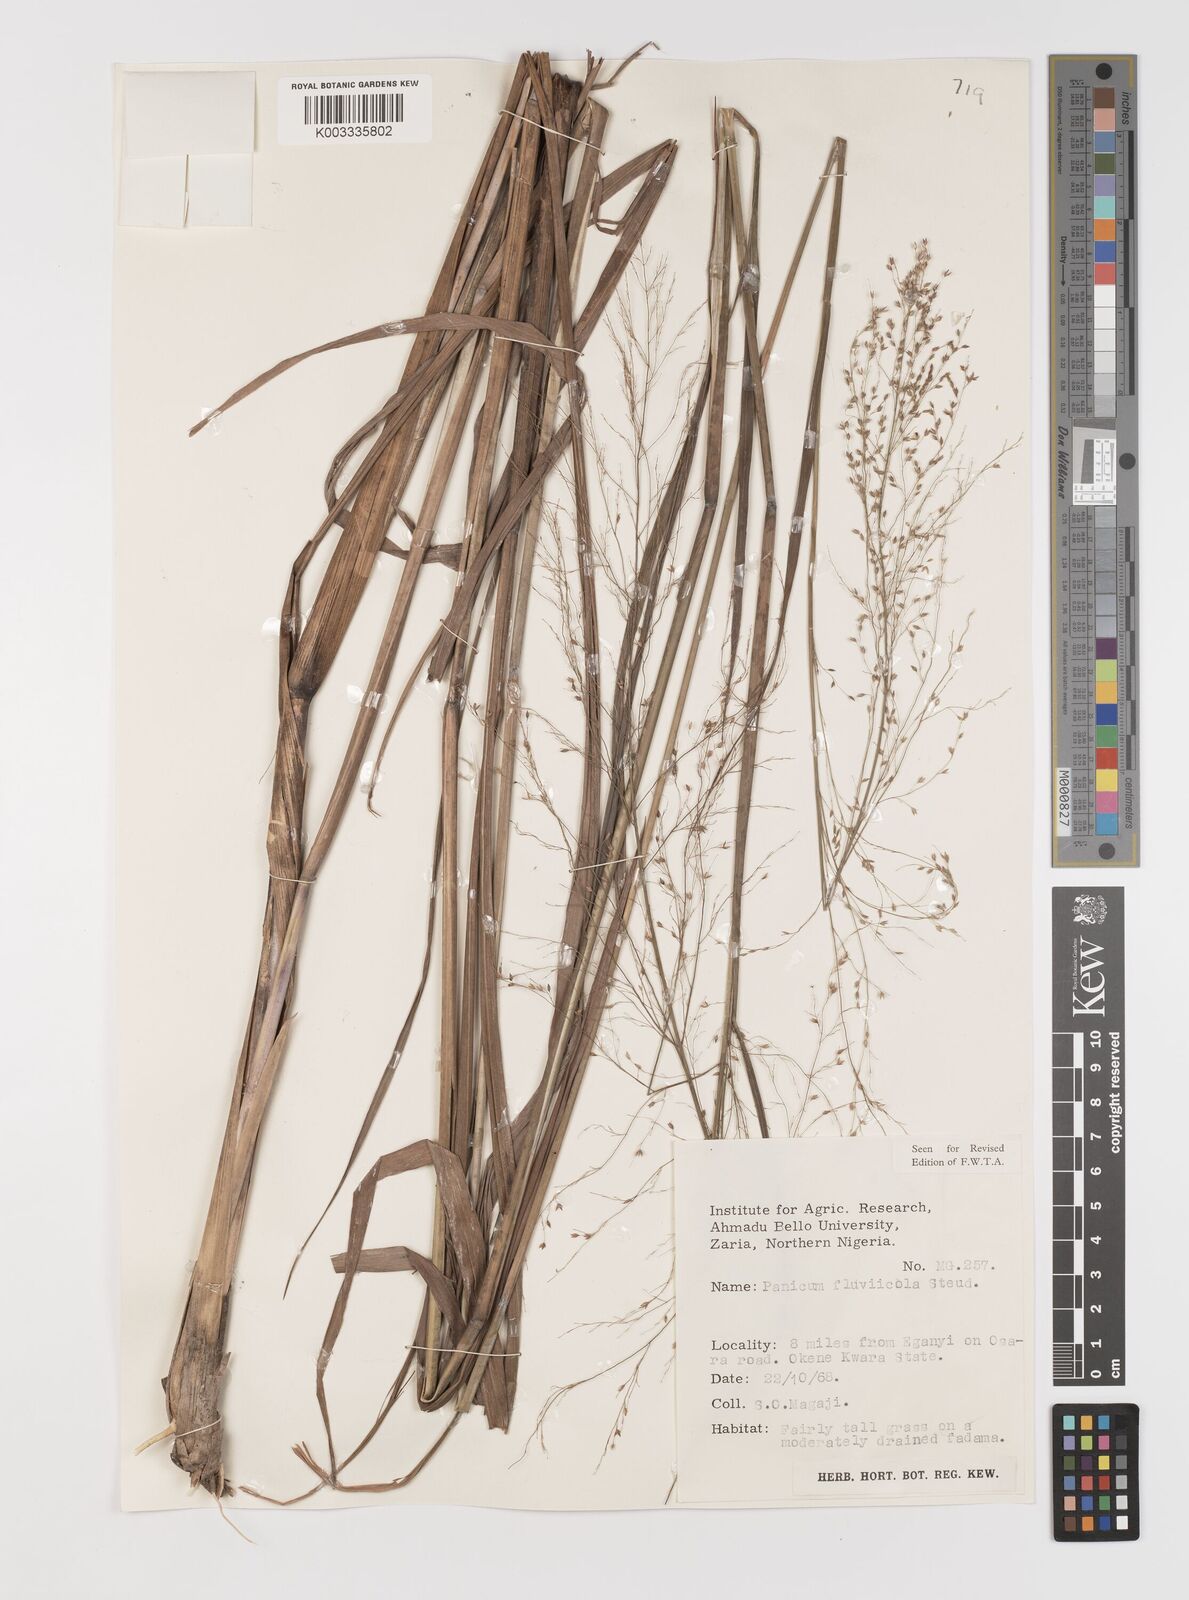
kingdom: Plantae
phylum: Tracheophyta
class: Liliopsida
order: Poales
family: Poaceae
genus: Panicum
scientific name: Panicum fluviicola
